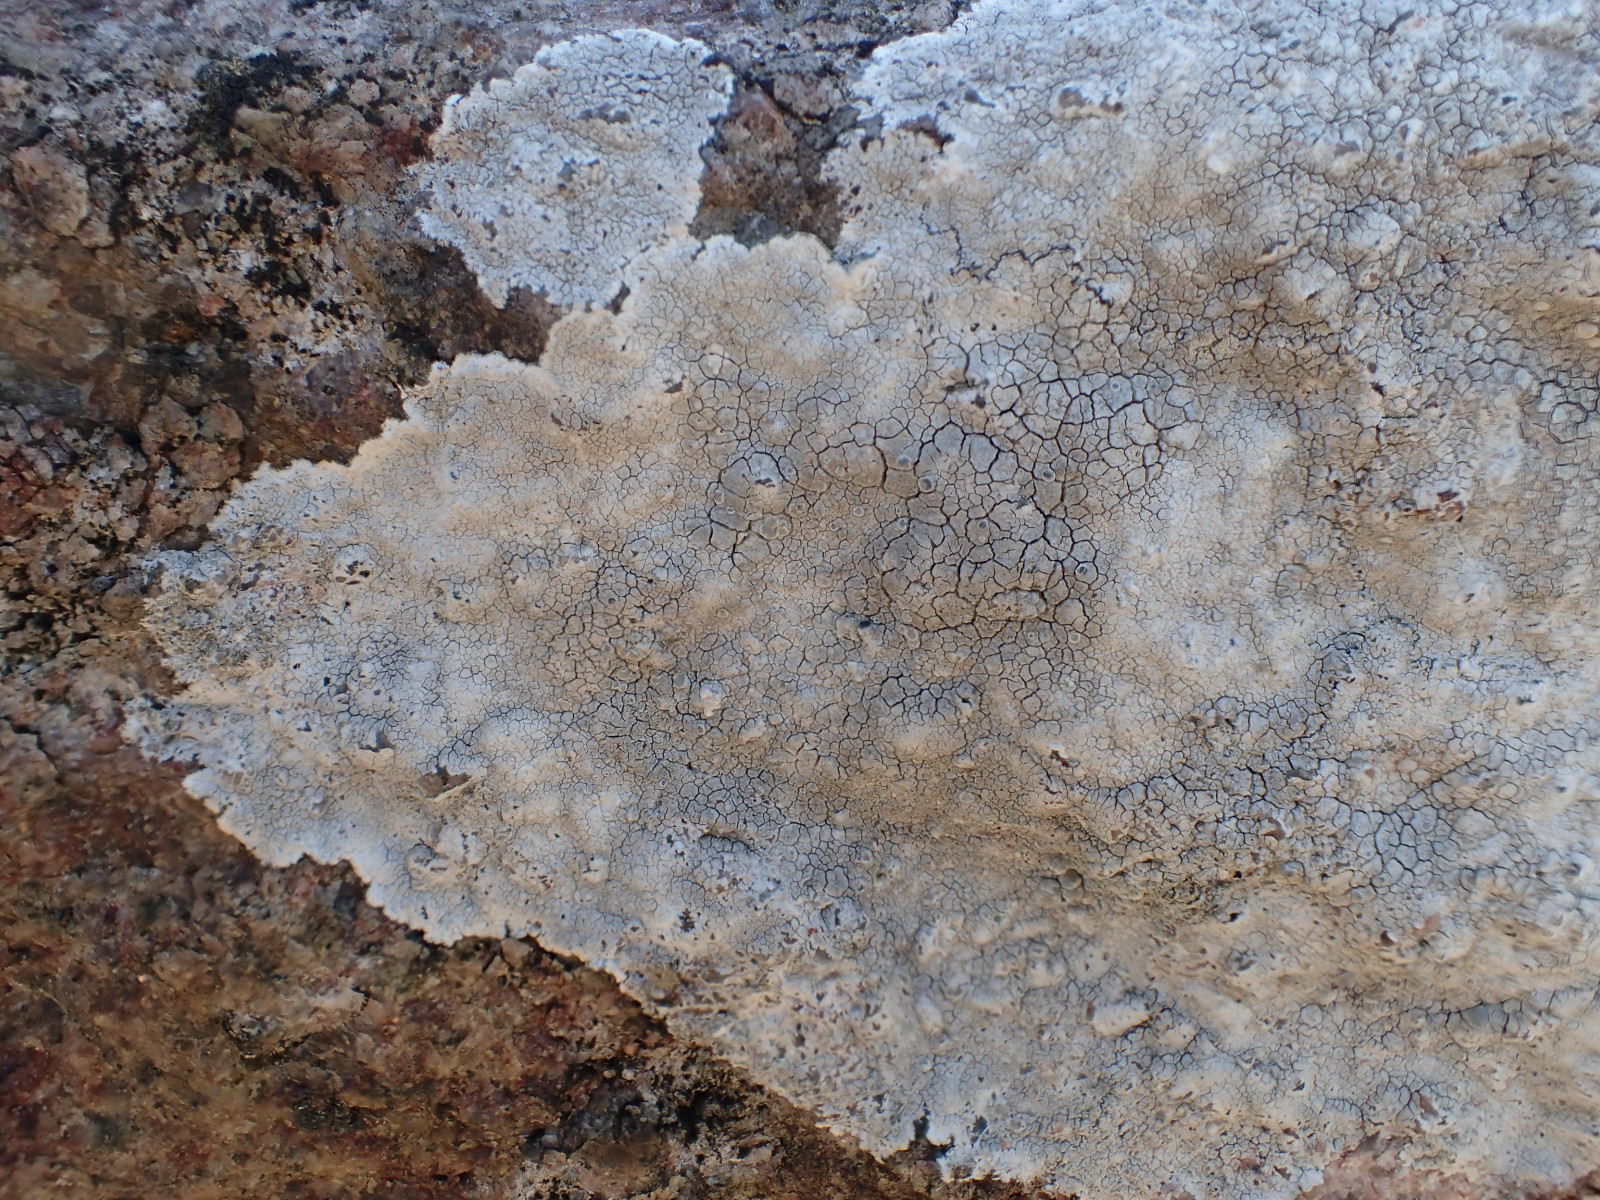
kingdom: Fungi
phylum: Ascomycota
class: Lecanoromycetes
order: Lecanorales
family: Lecanoraceae
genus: Glaucomaria
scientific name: Glaucomaria rupicola
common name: stengærde-kantskivelav
